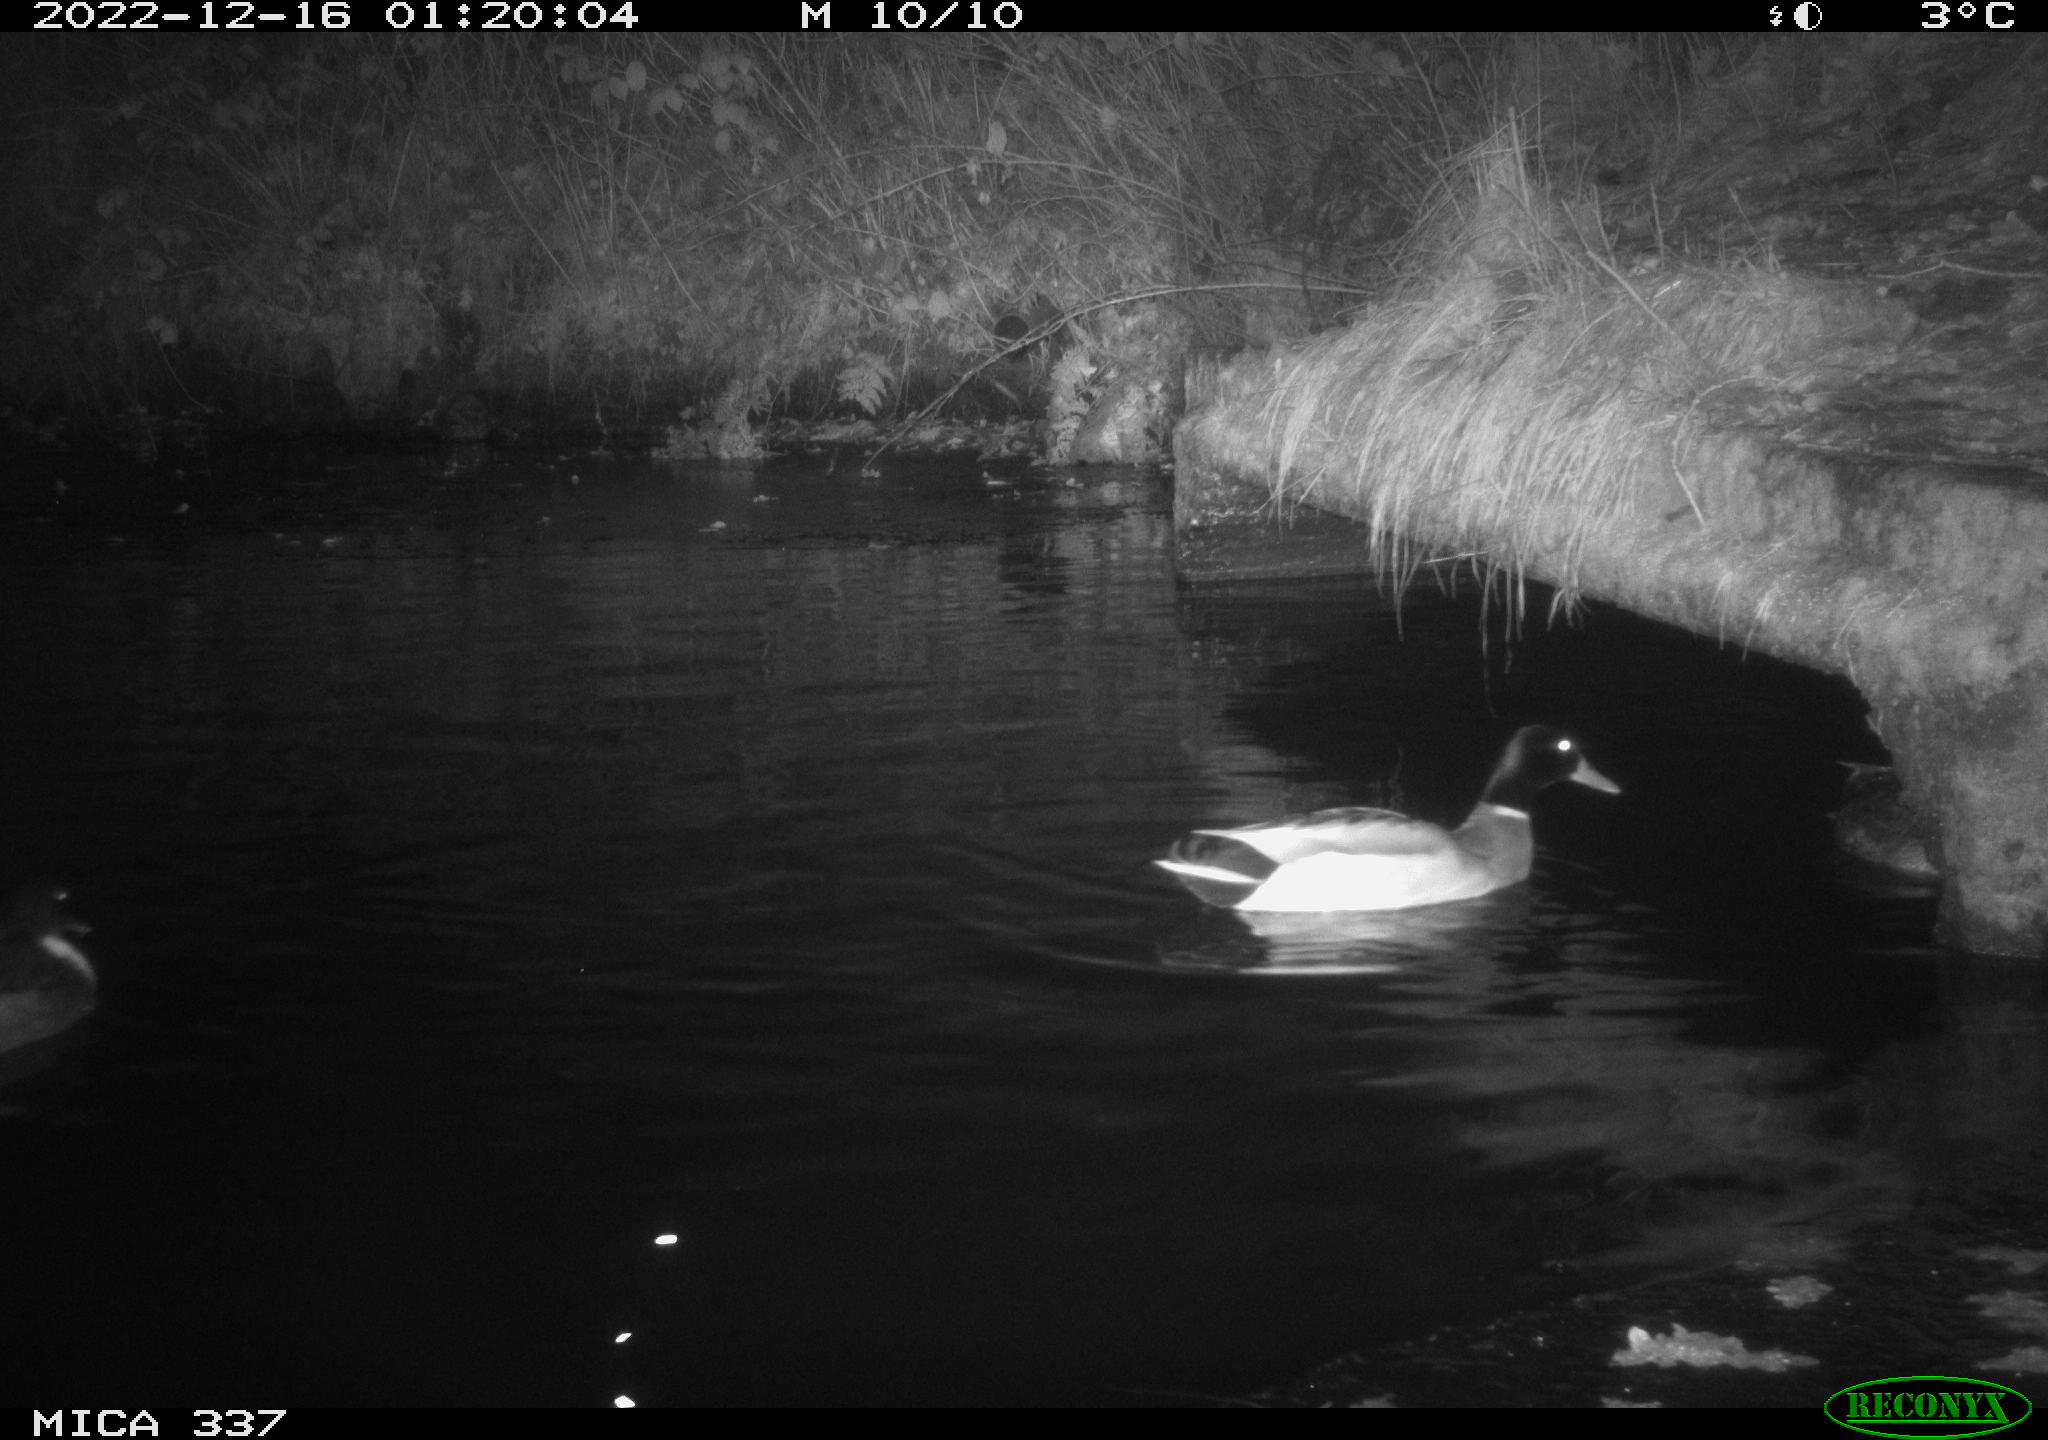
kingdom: Animalia
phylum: Chordata
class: Aves
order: Anseriformes
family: Anatidae
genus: Anas
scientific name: Anas
